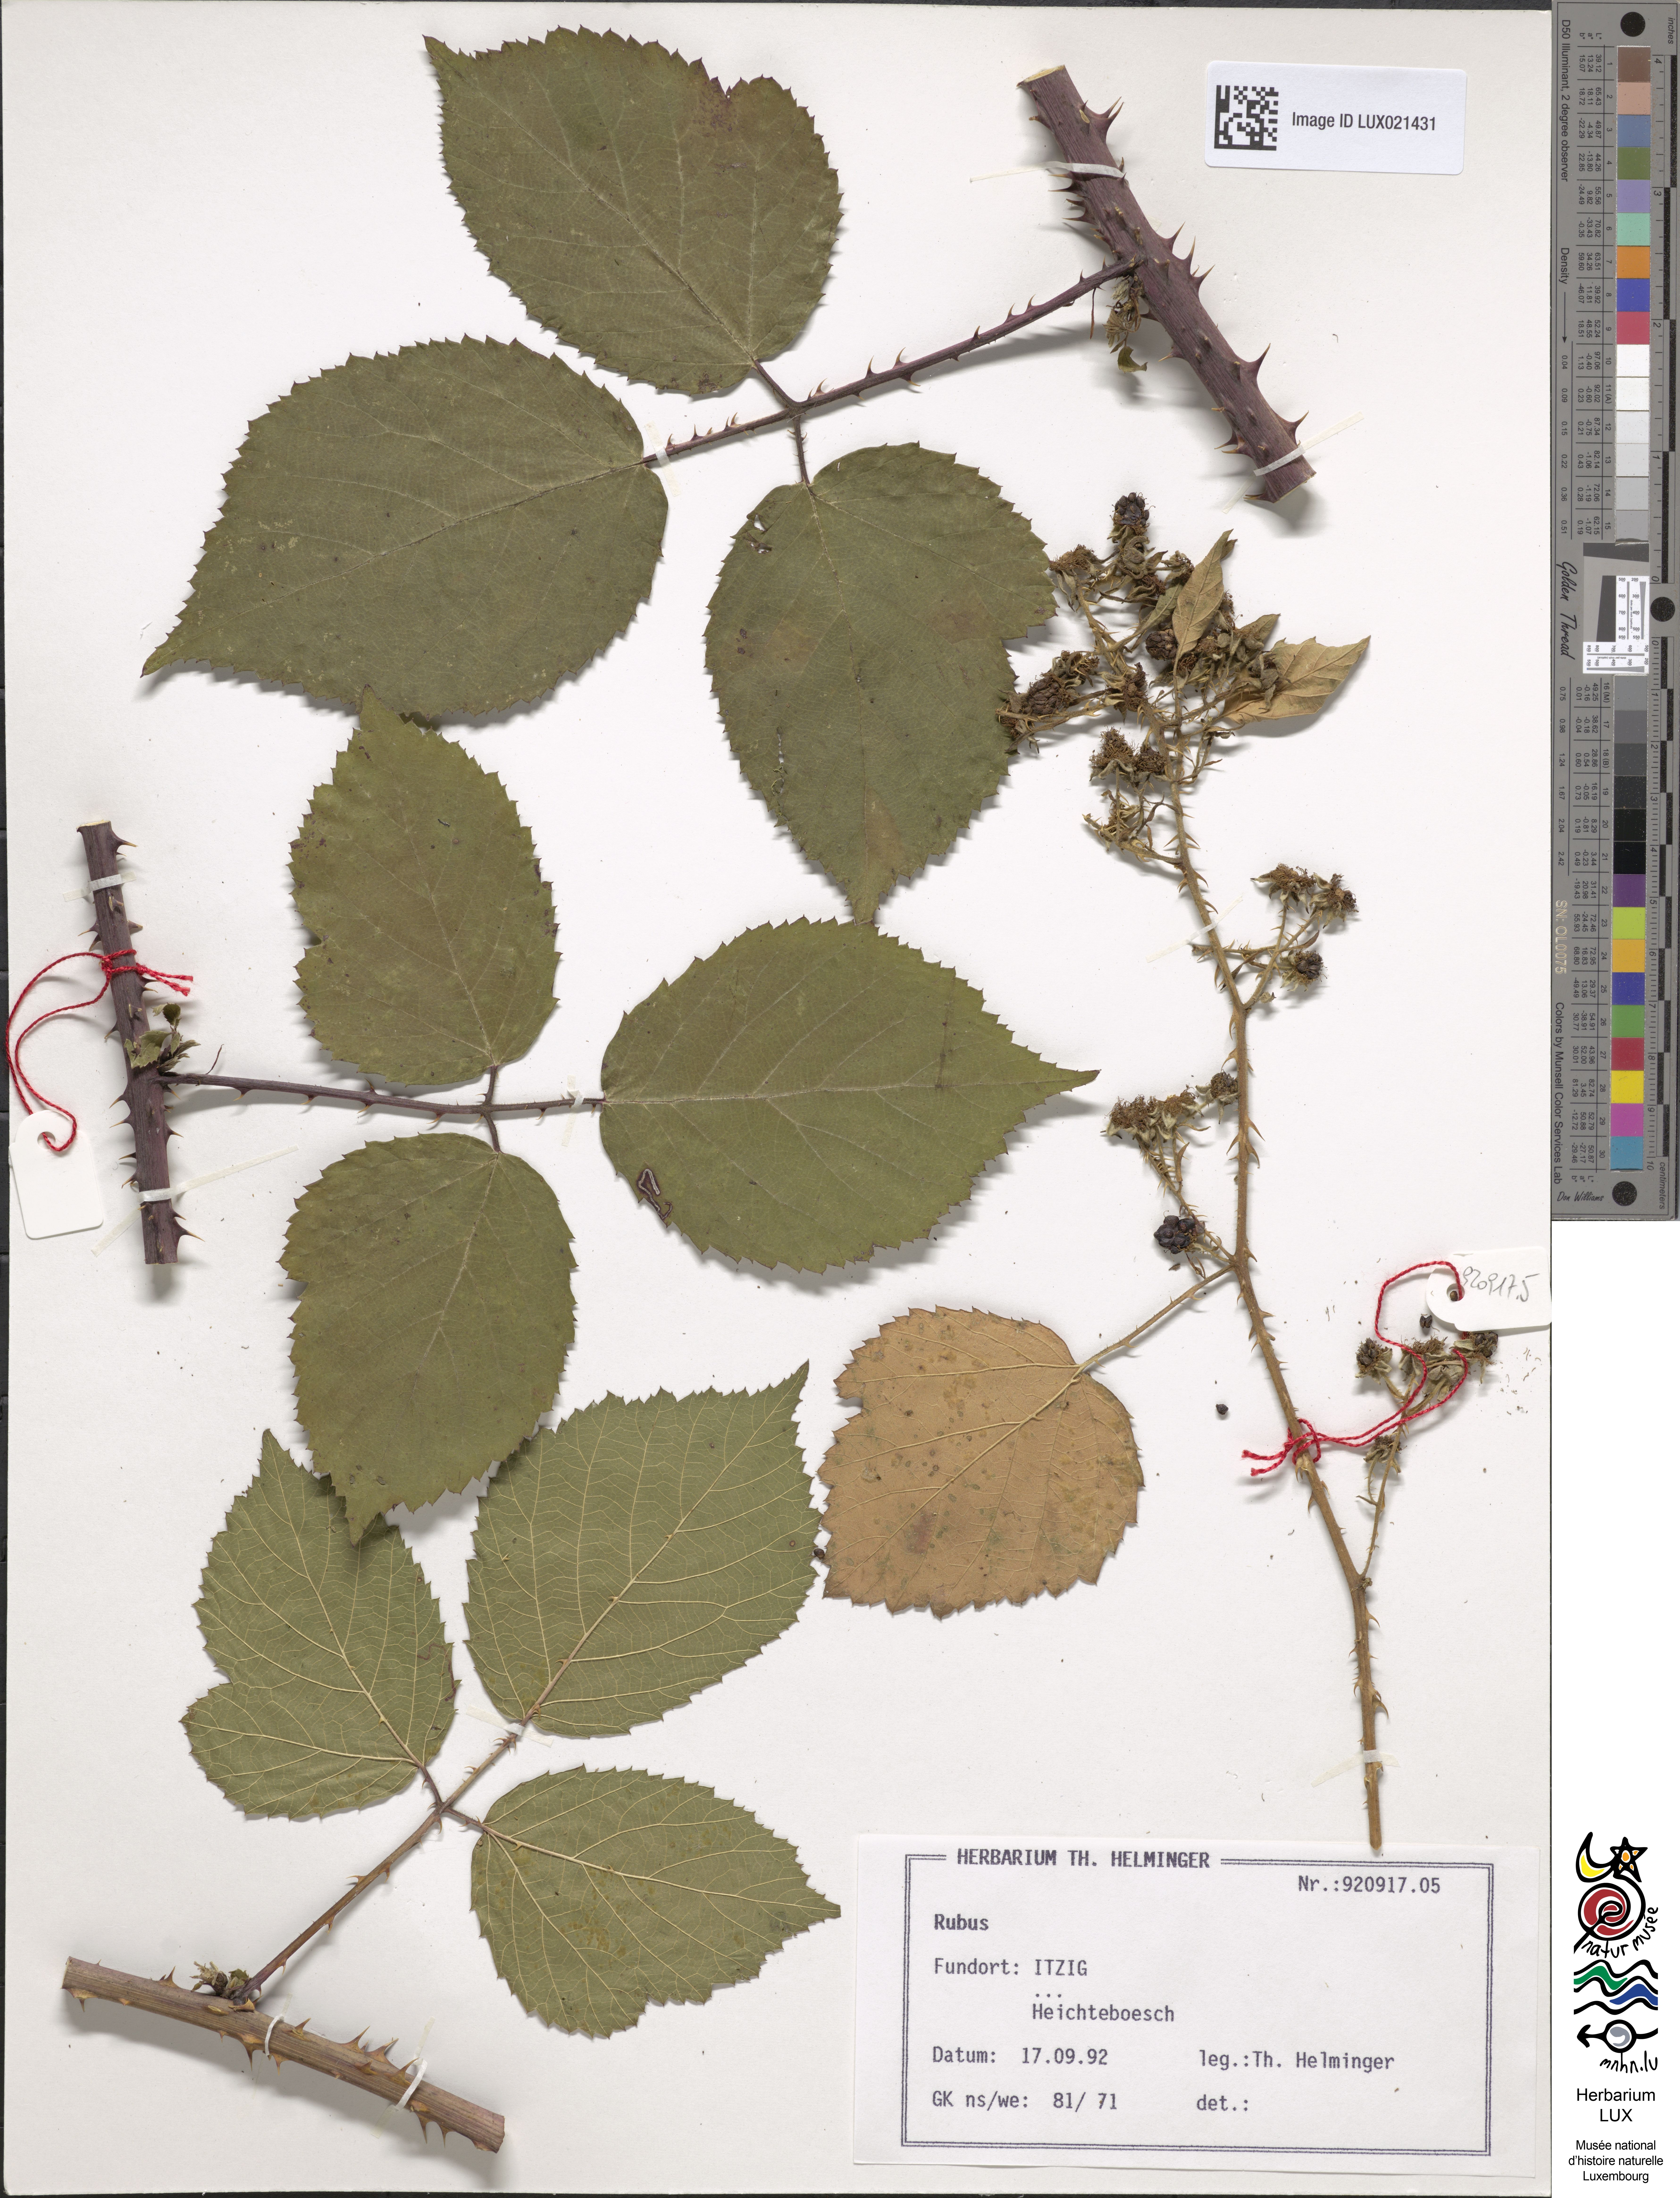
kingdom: Plantae
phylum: Tracheophyta
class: Magnoliopsida
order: Rosales
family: Rosaceae
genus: Rubus
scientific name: Rubus
